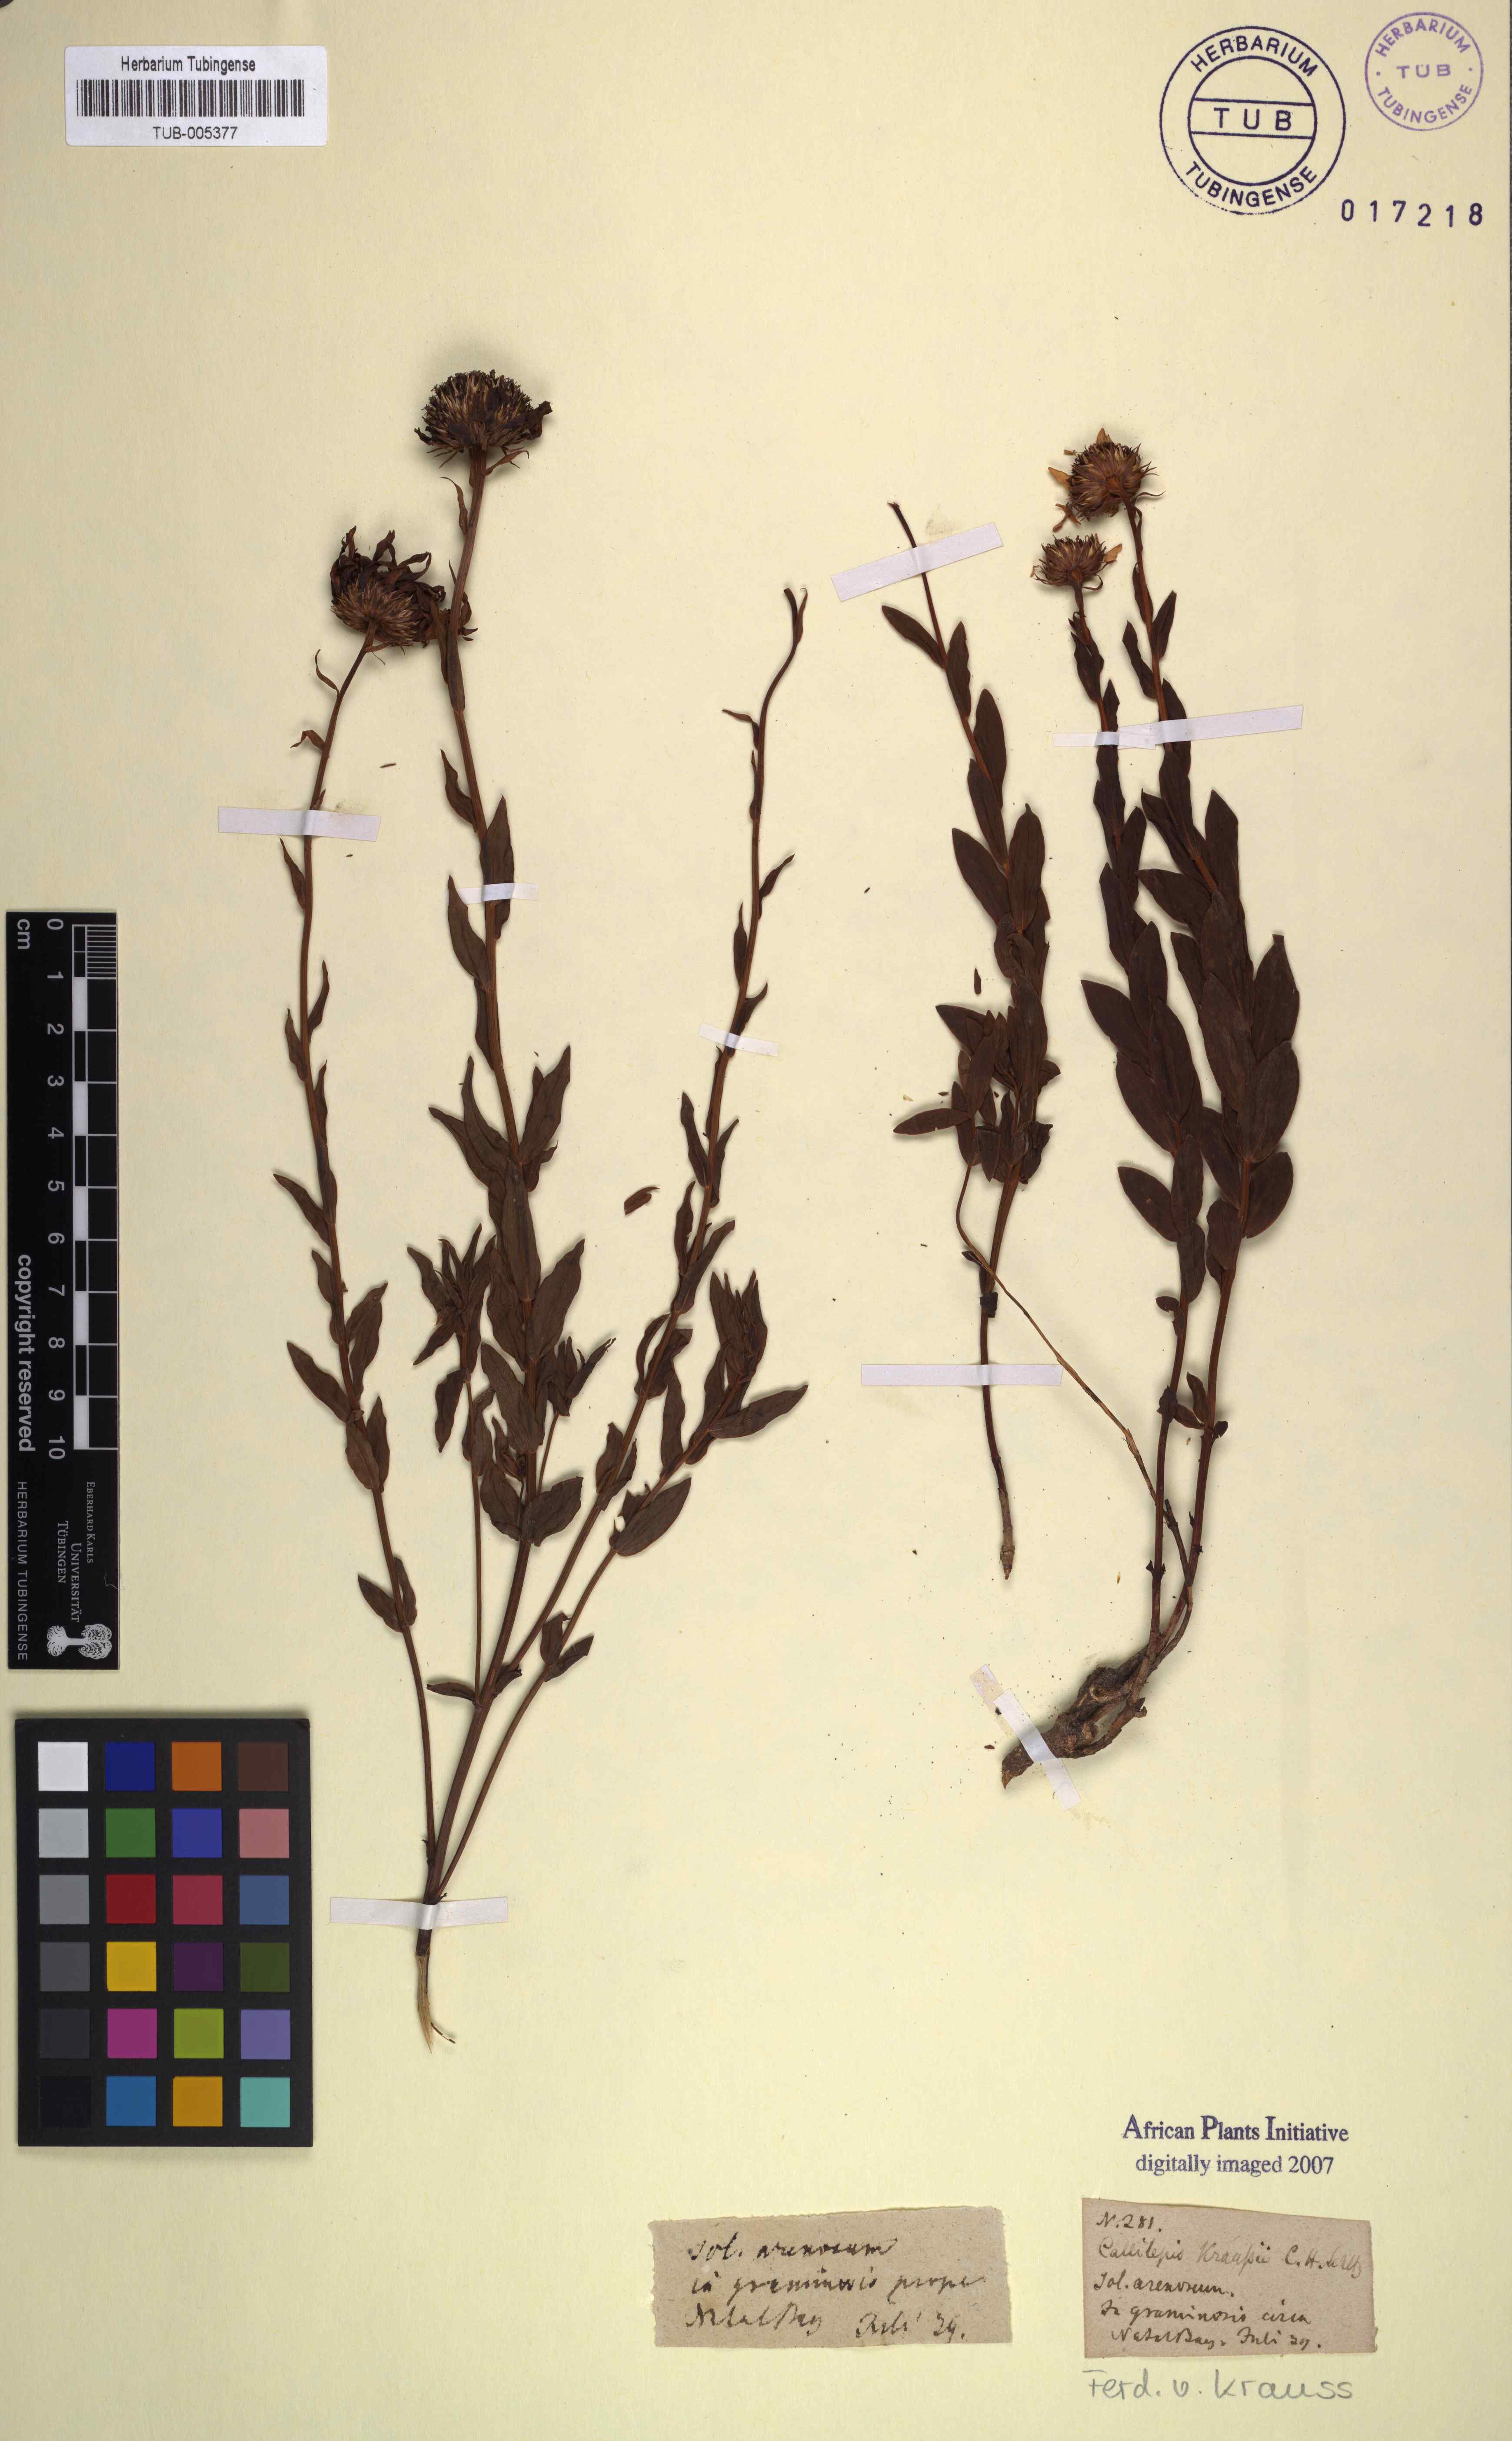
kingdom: Plantae
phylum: Tracheophyta
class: Magnoliopsida
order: Asterales
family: Asteraceae
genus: Callilepis
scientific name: Callilepis
